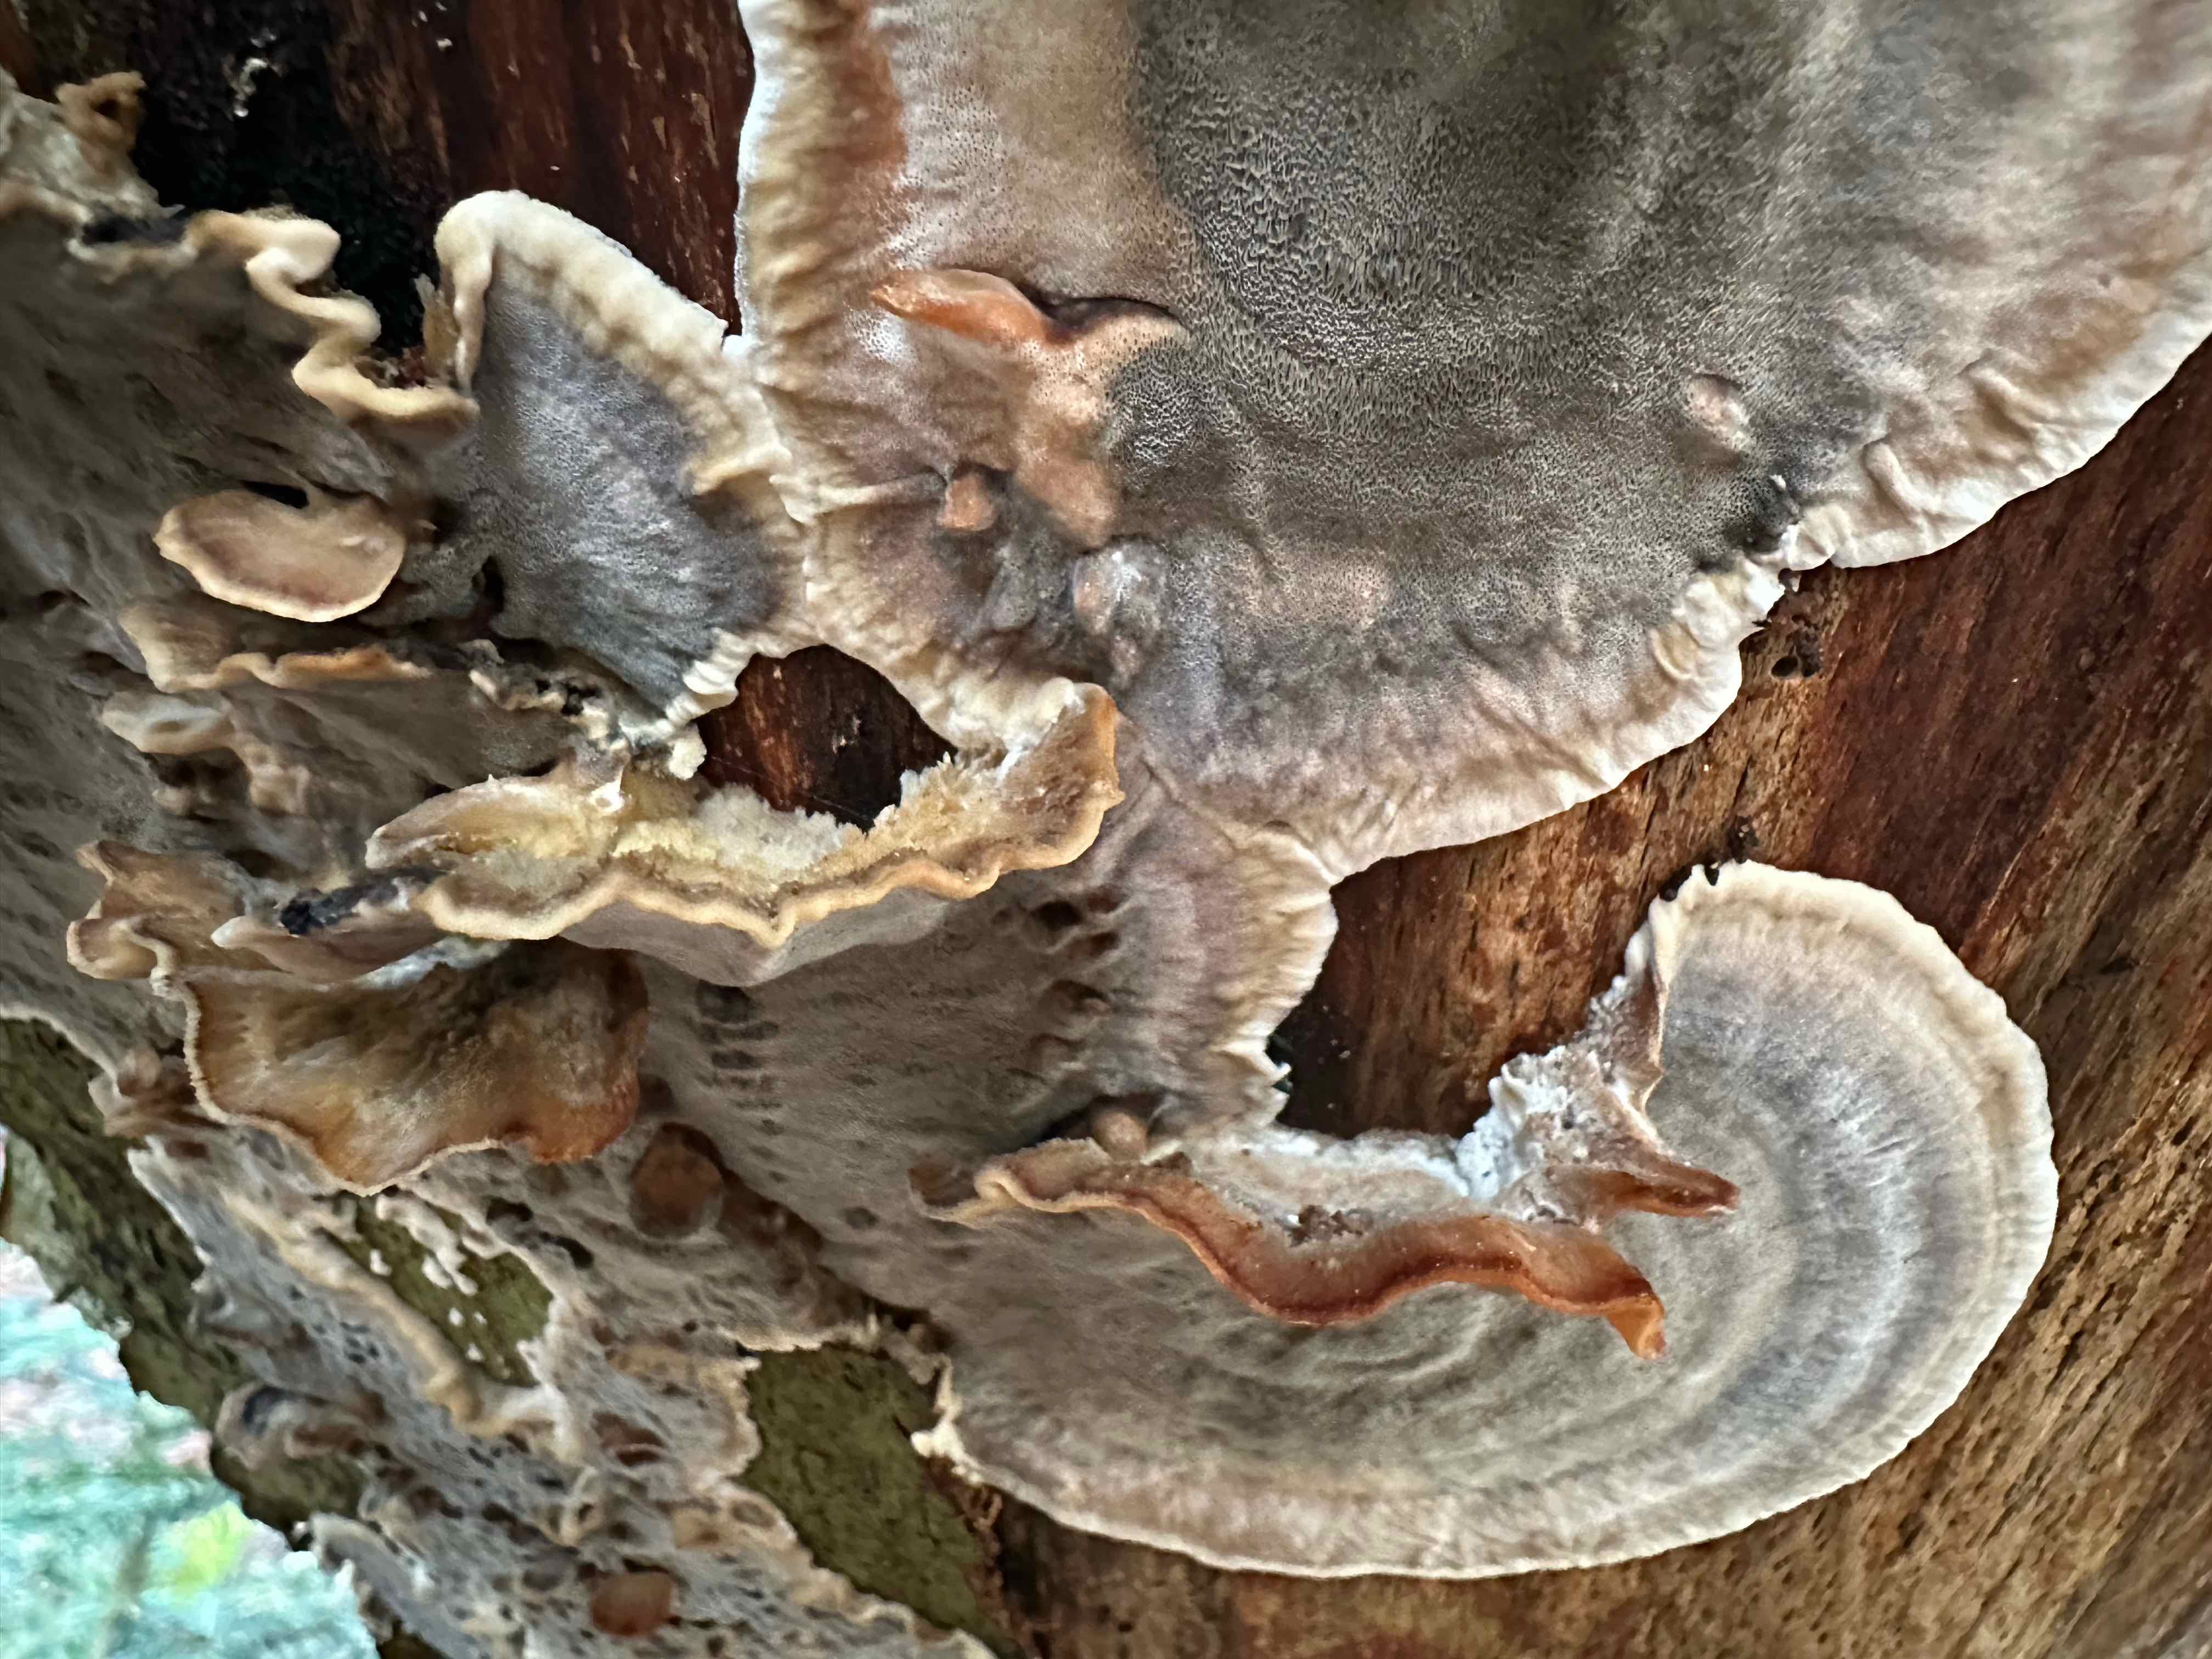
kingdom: Fungi
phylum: Basidiomycota
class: Agaricomycetes
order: Polyporales
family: Phanerochaetaceae
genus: Bjerkandera
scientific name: Bjerkandera adusta
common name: sveden sodporesvamp
